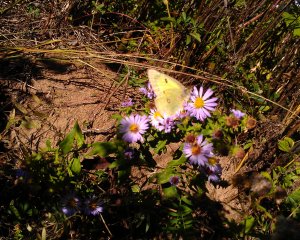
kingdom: Animalia
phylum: Arthropoda
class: Insecta
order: Lepidoptera
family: Pieridae
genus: Colias
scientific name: Colias philodice
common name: Clouded Sulphur
